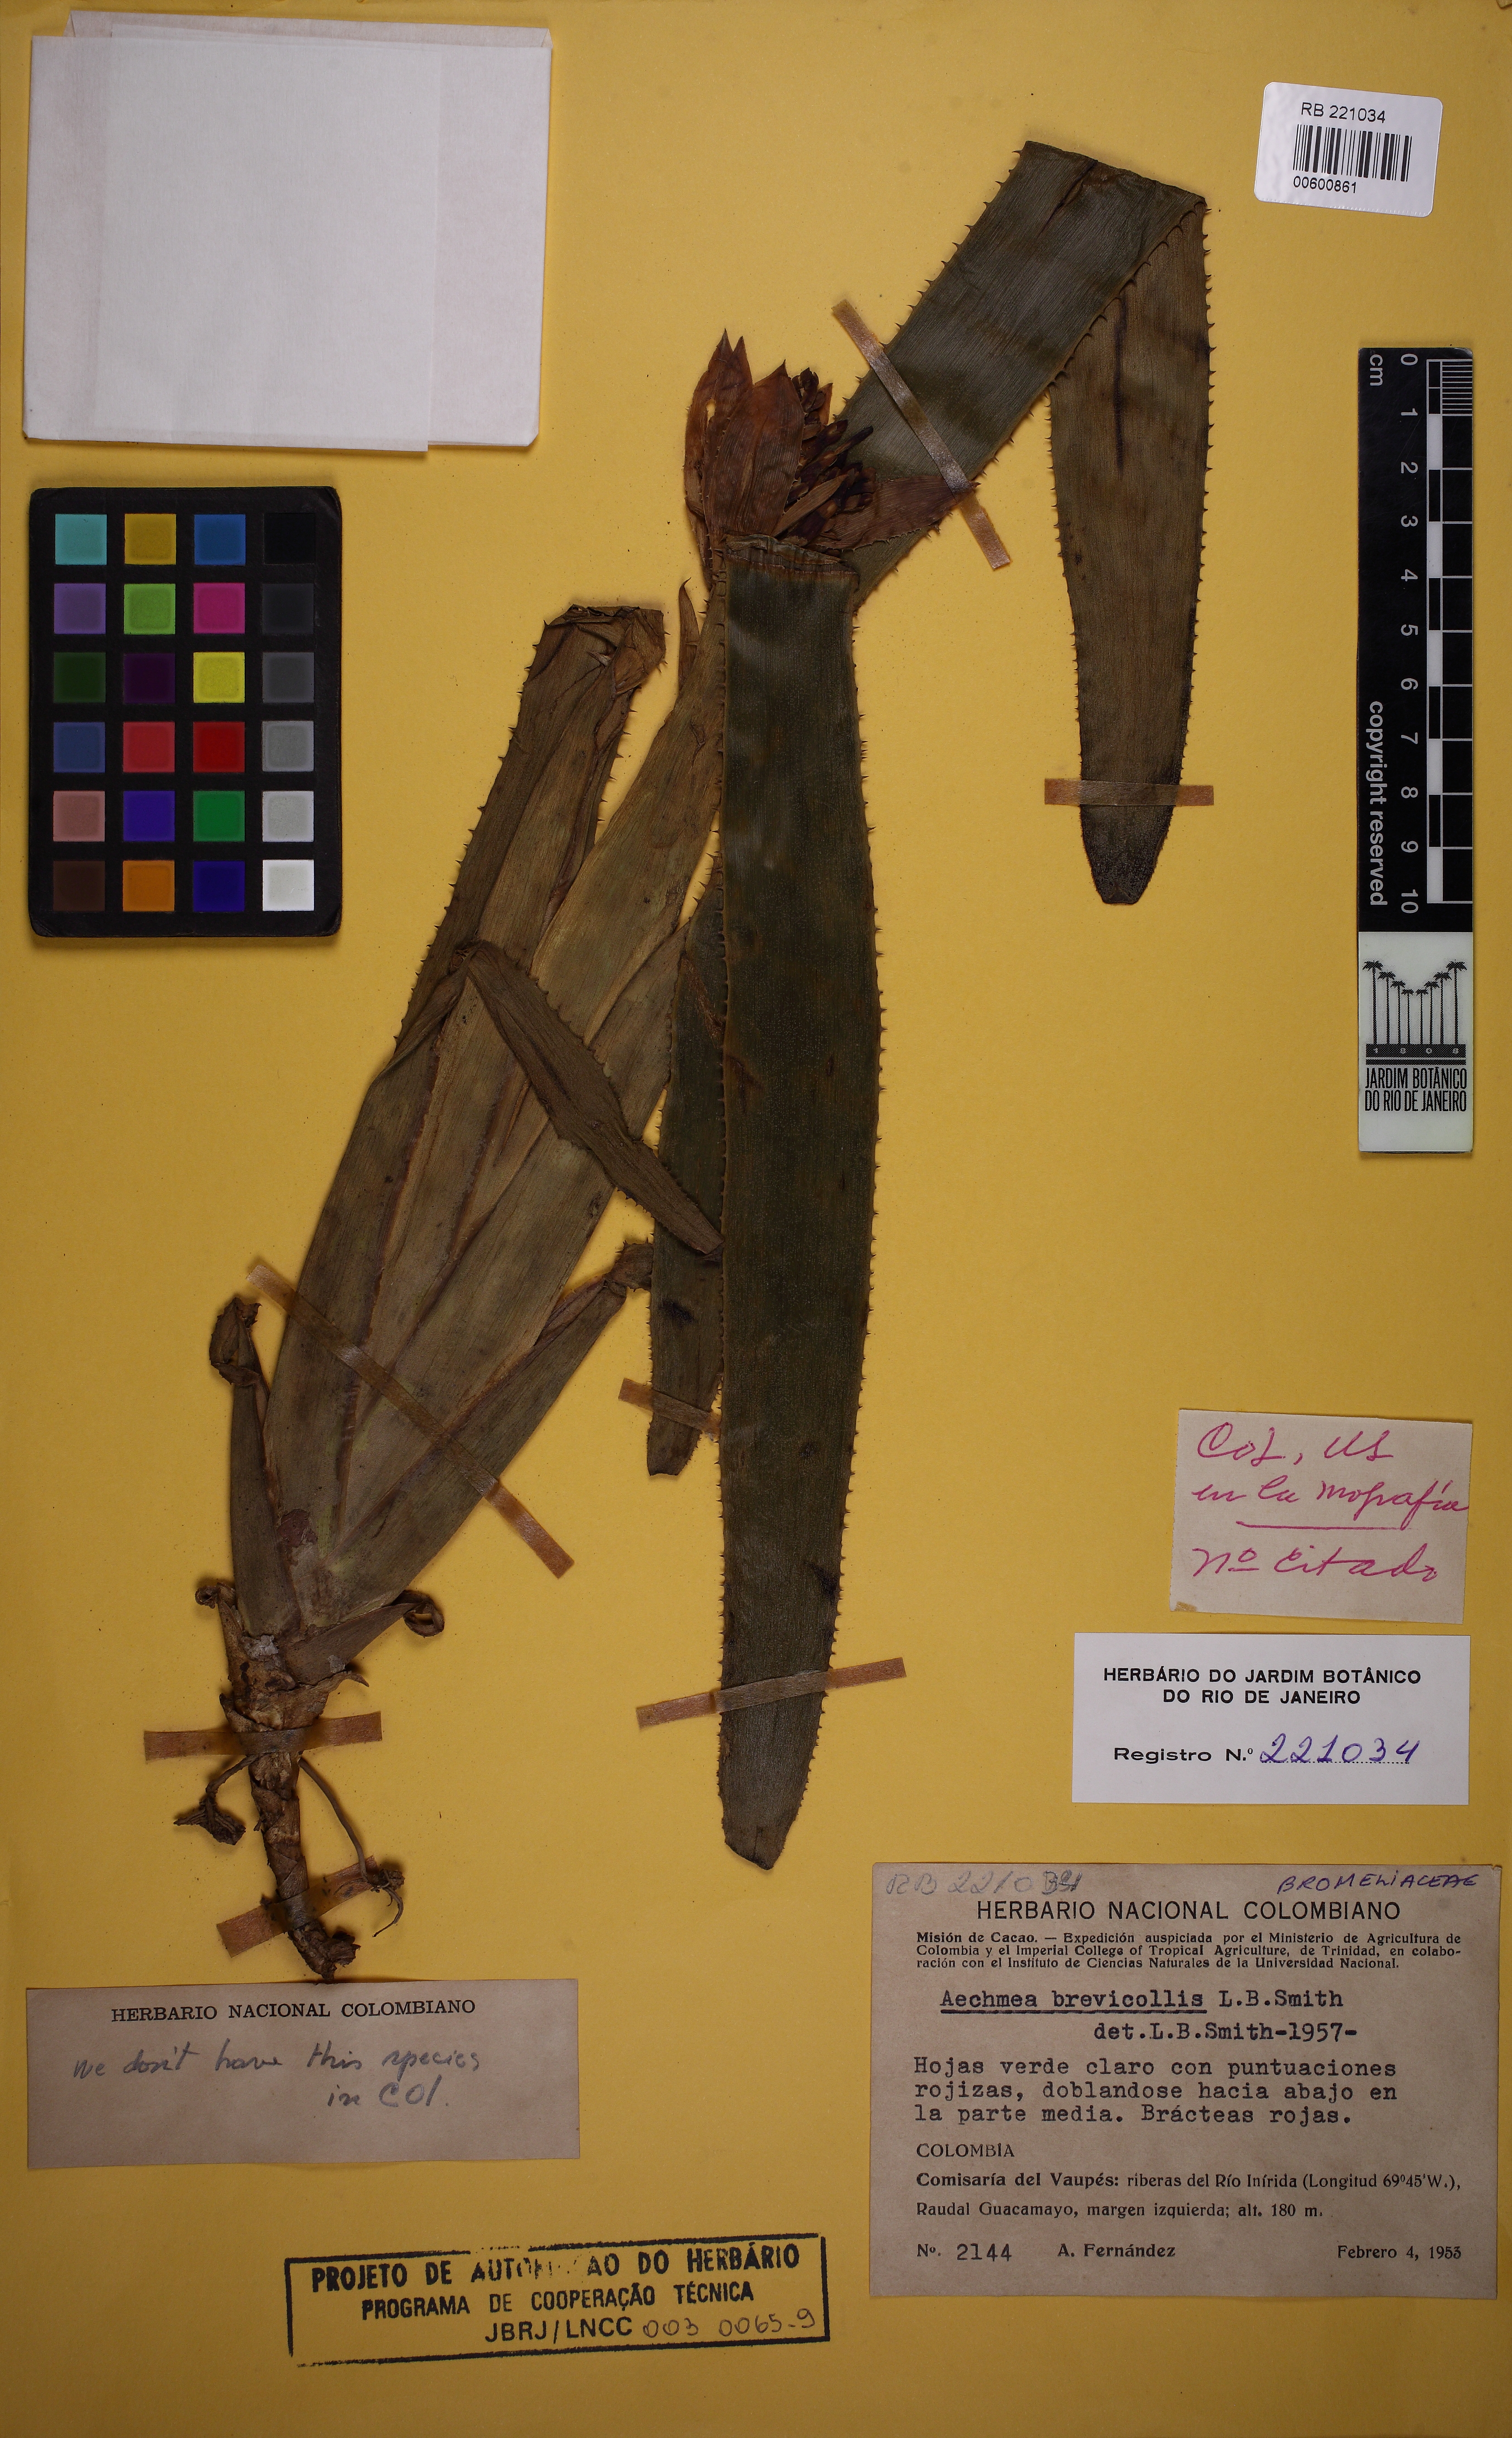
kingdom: Plantae
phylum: Tracheophyta
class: Liliopsida
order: Poales
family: Bromeliaceae
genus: Aechmea
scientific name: Aechmea brevicollis
